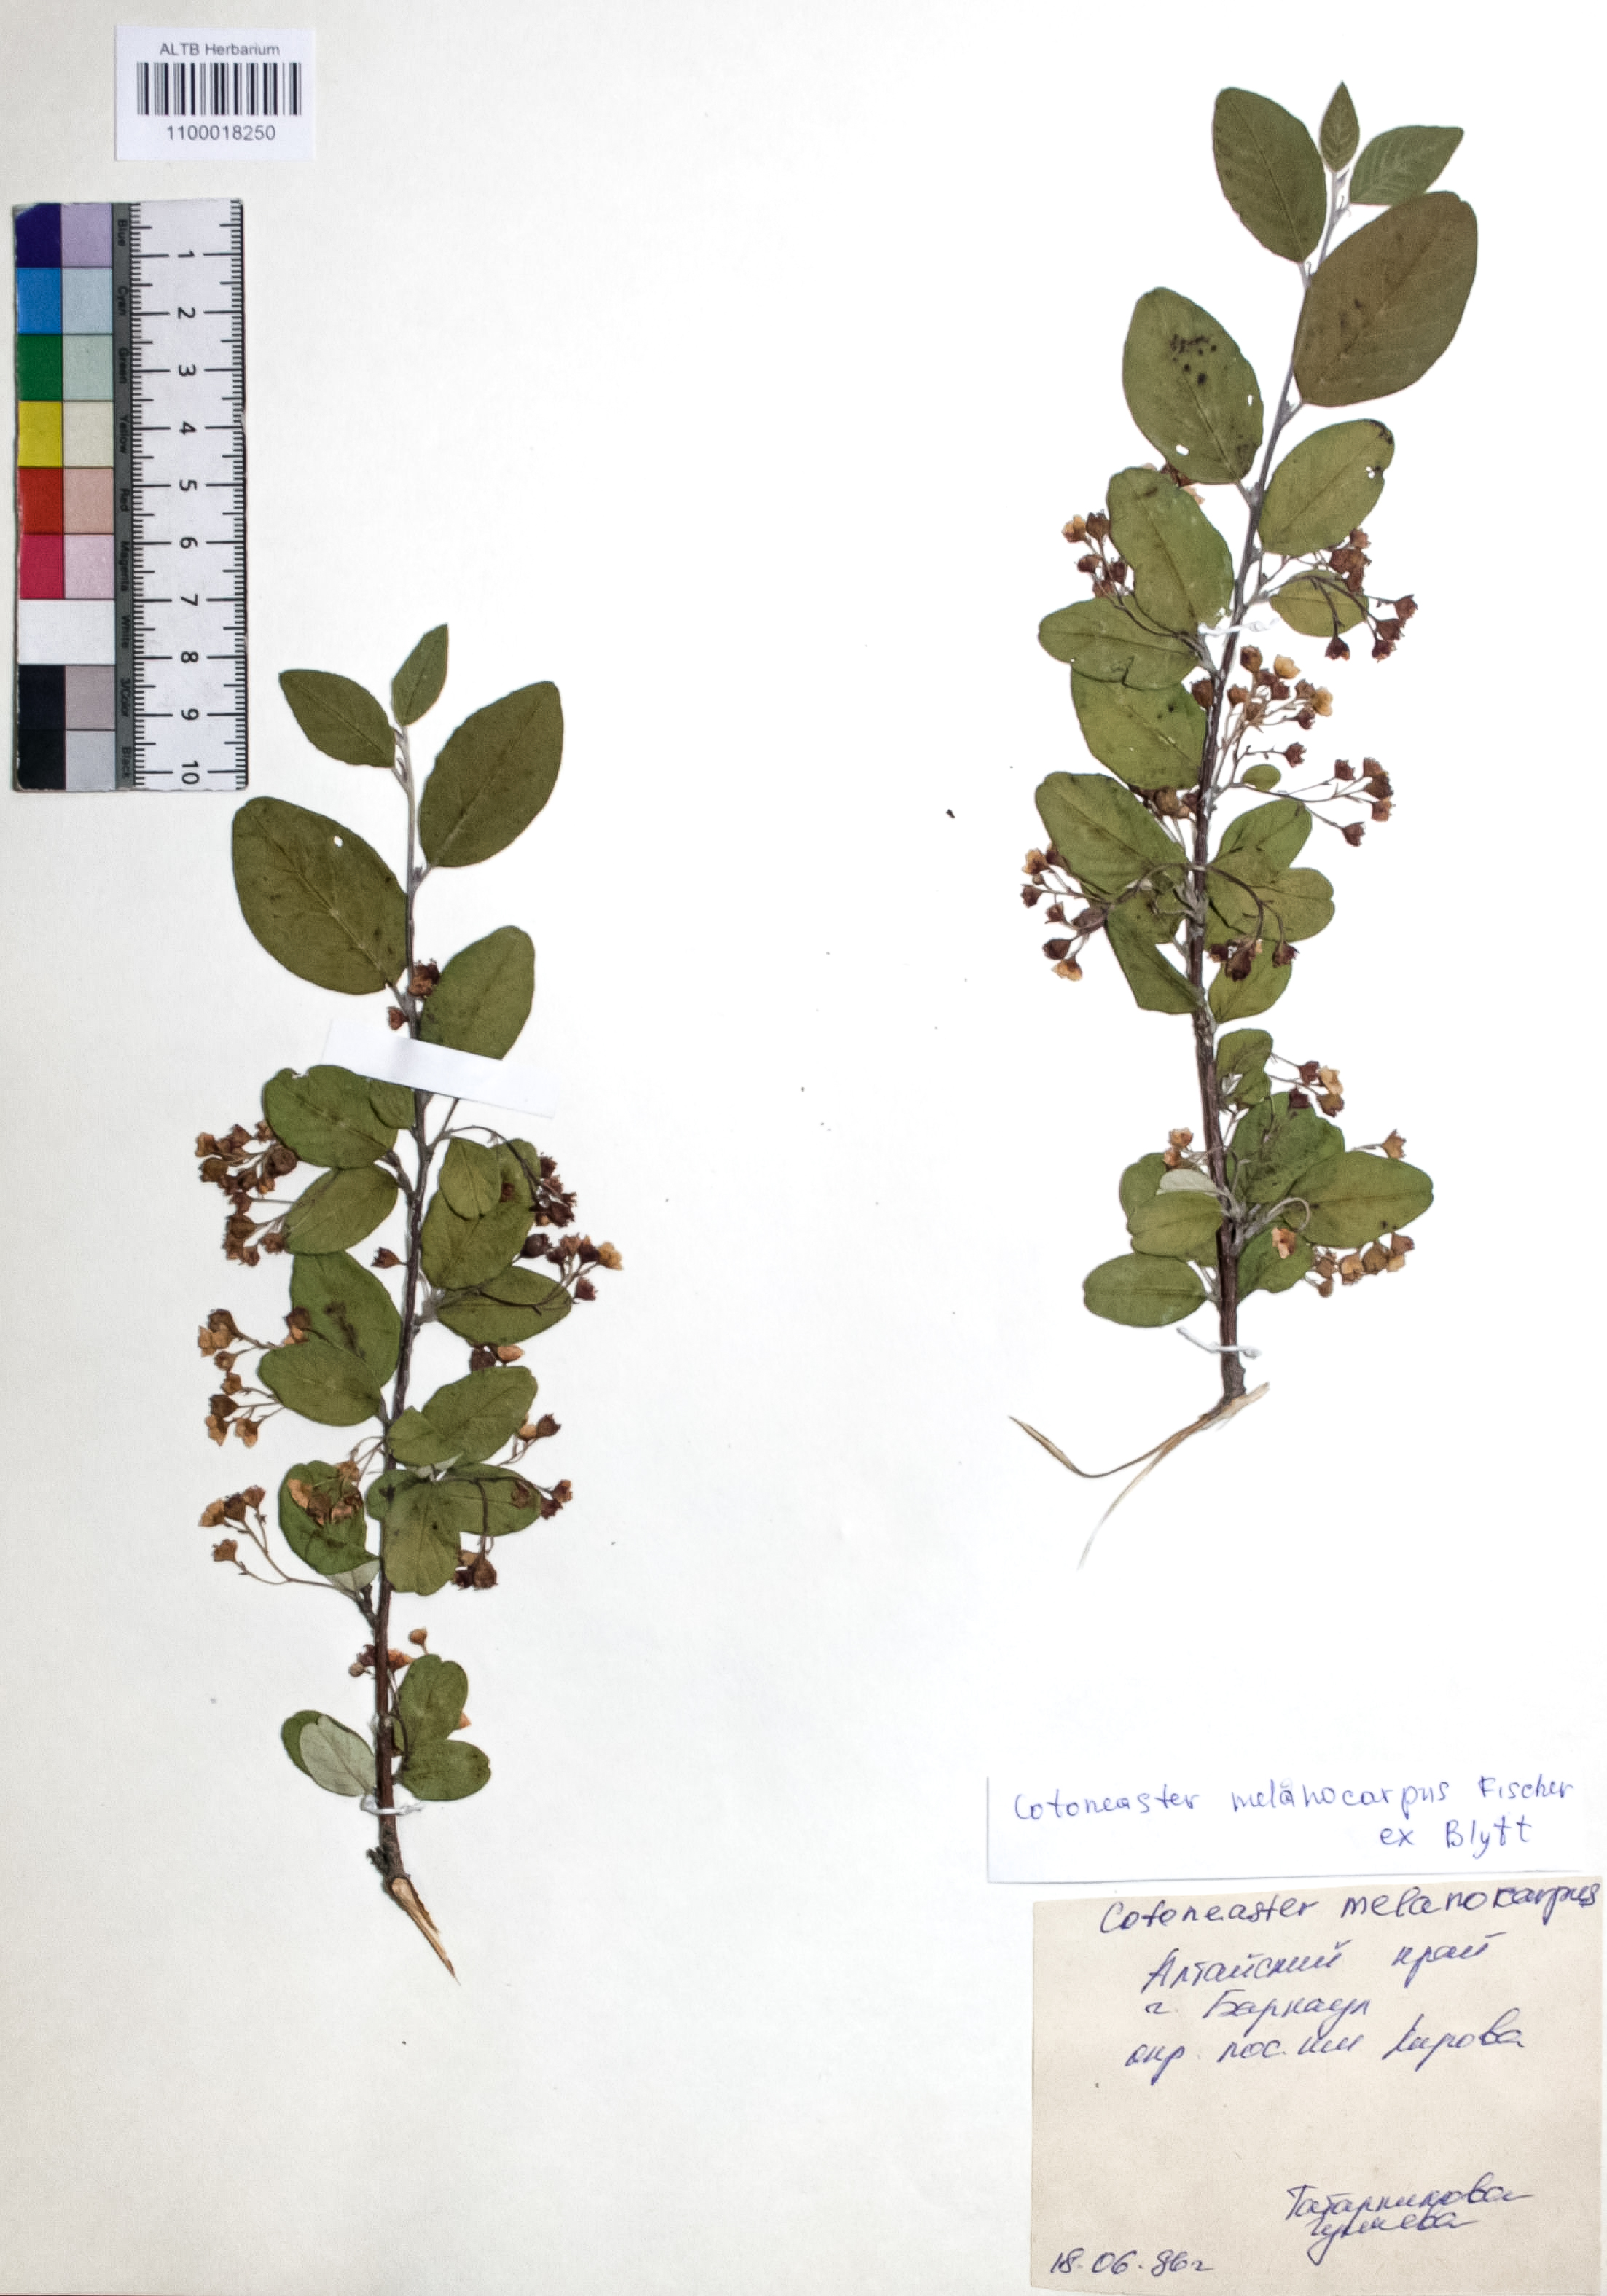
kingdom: Plantae
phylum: Tracheophyta
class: Magnoliopsida
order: Rosales
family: Rosaceae
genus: Cotoneaster
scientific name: Cotoneaster niger
